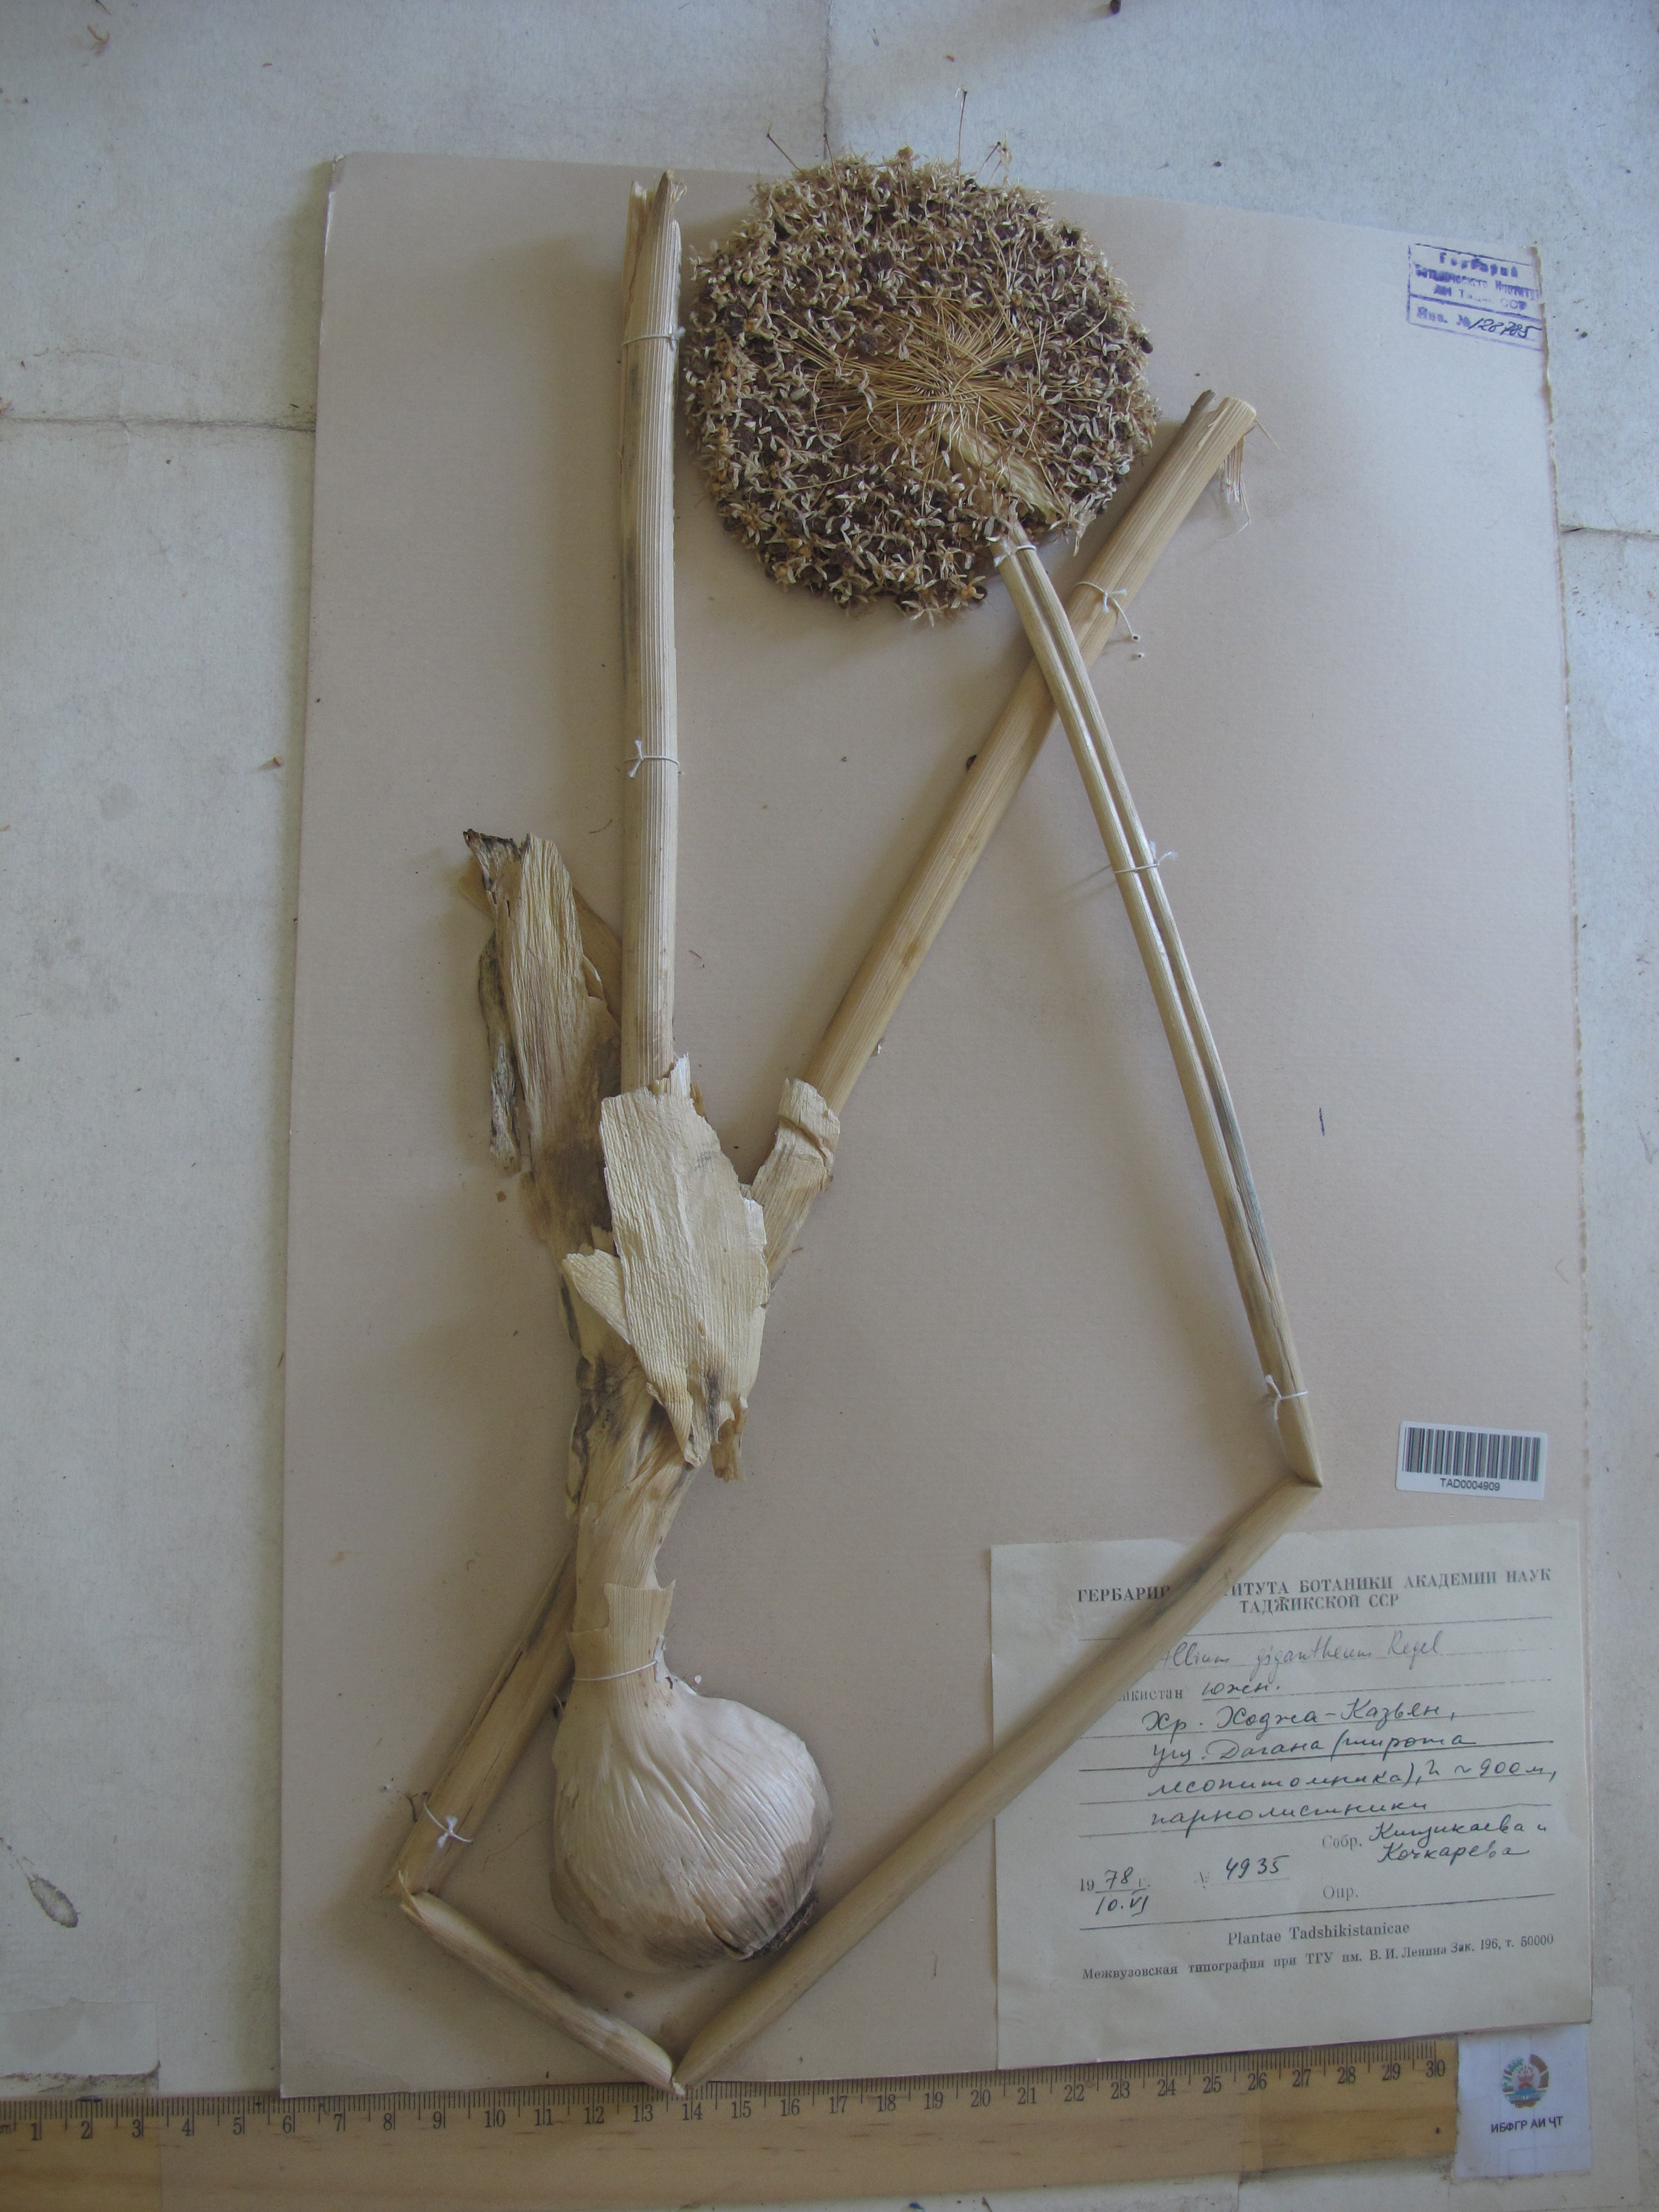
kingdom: Plantae
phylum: Tracheophyta
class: Liliopsida
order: Asparagales
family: Amaryllidaceae
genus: Allium
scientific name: Allium giganteum
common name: Giant onion
